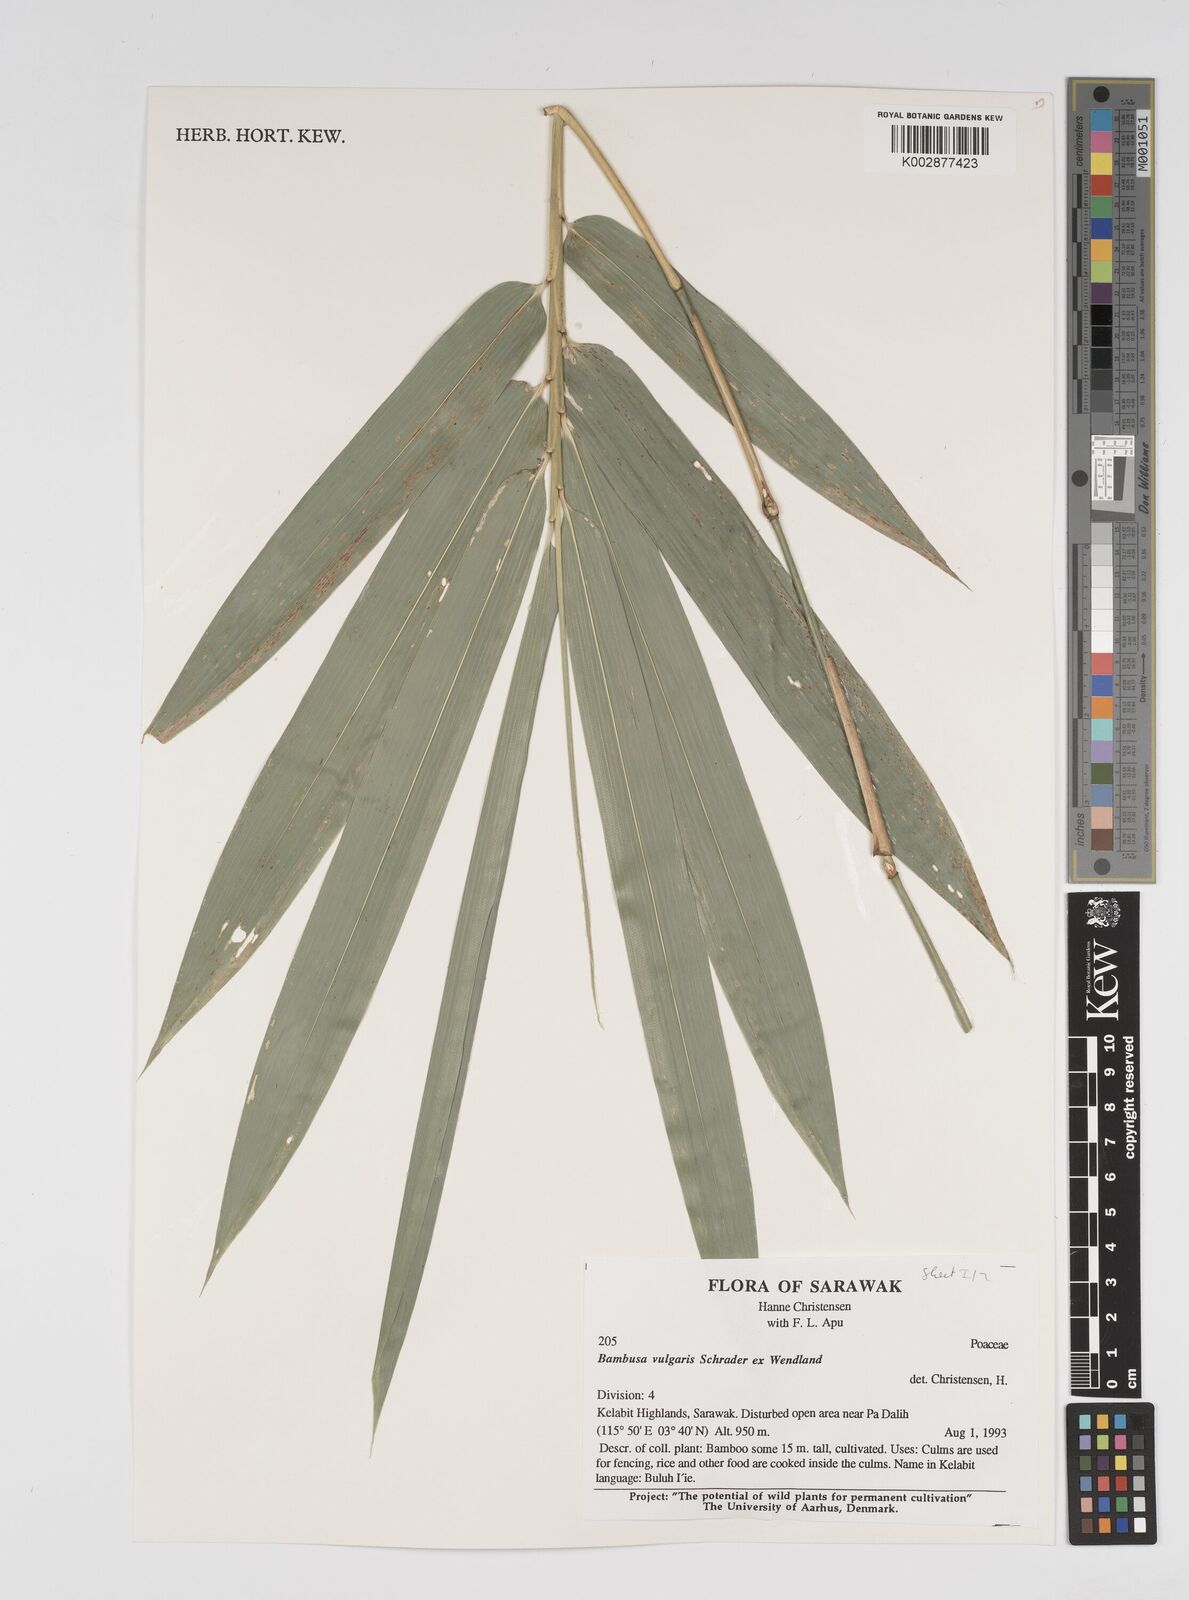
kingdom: Plantae
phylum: Tracheophyta
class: Liliopsida
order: Poales
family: Poaceae
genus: Bambusa
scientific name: Bambusa vulgaris
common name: Common bamboo
